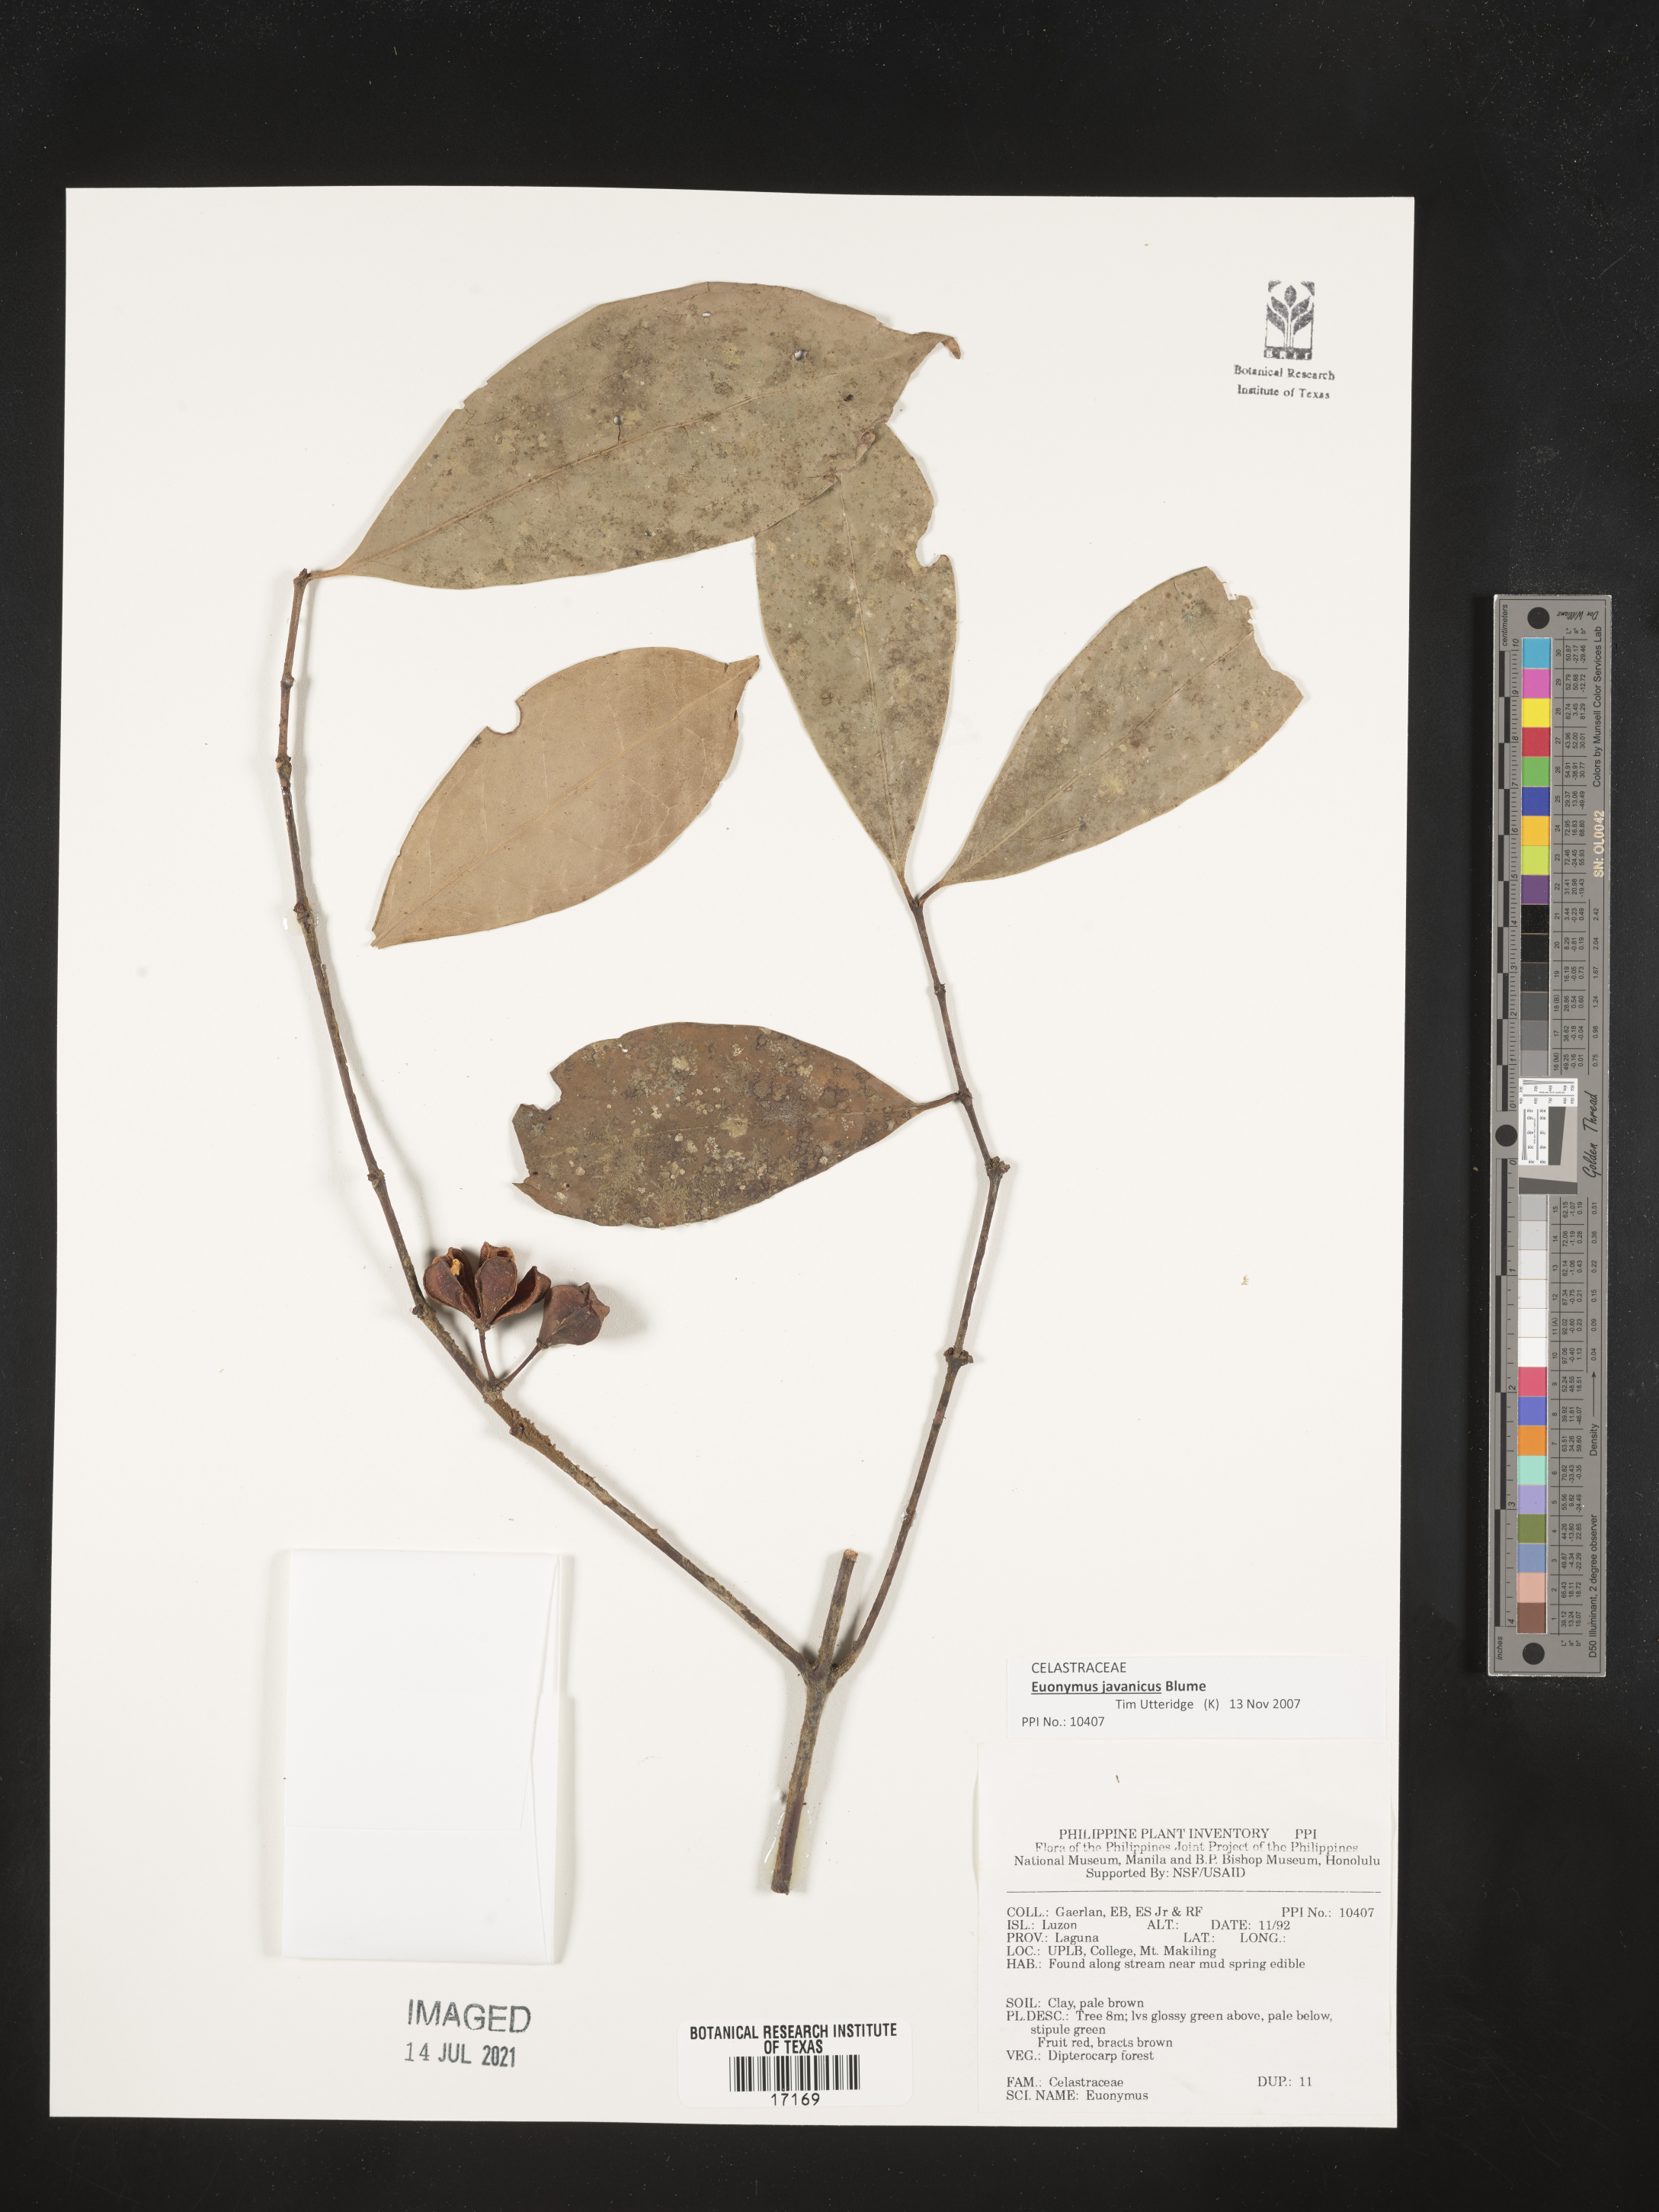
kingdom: Plantae
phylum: Tracheophyta
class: Magnoliopsida
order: Celastrales
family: Celastraceae
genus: Euonymus
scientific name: Euonymus
